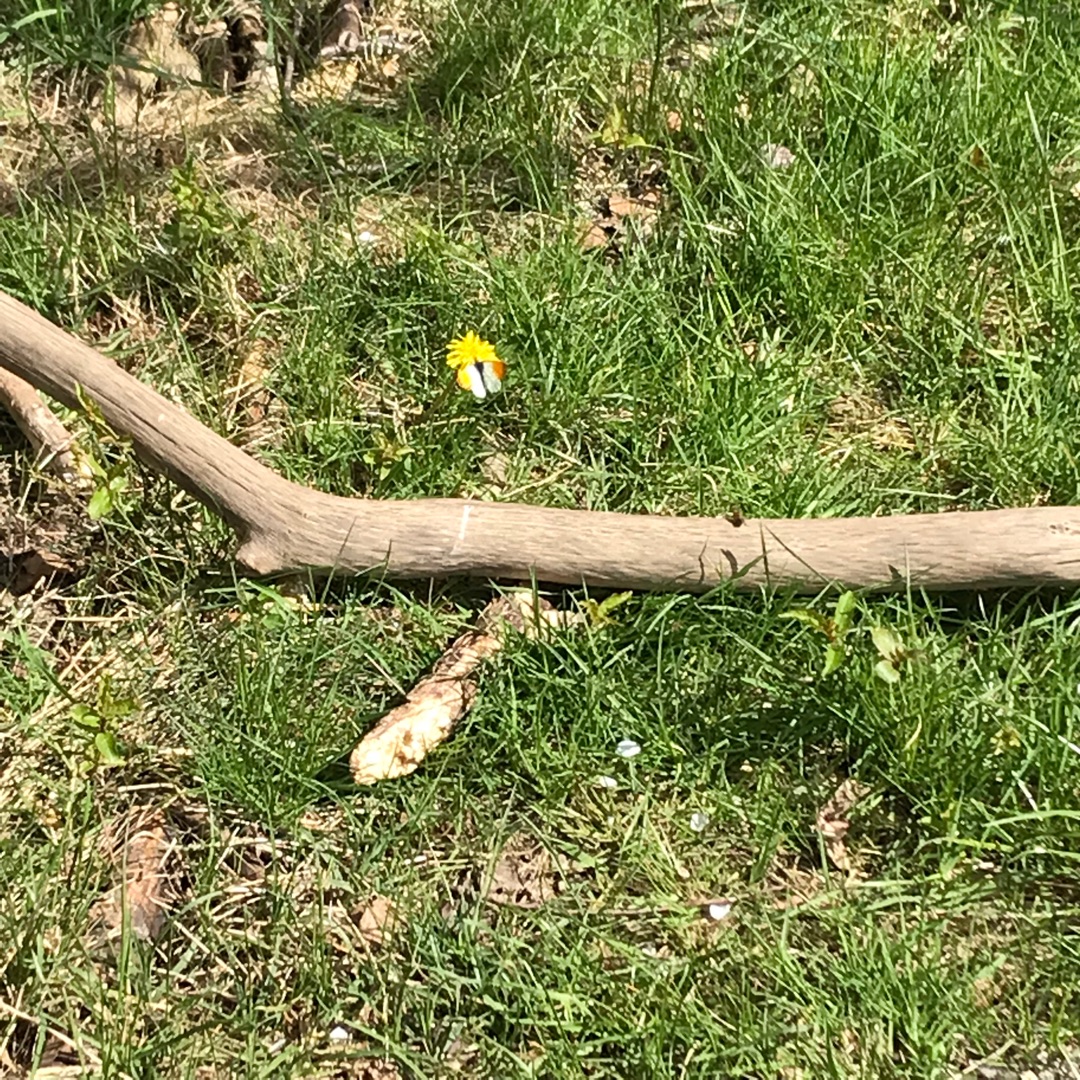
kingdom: Animalia
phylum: Arthropoda
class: Insecta
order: Lepidoptera
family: Pieridae
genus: Anthocharis
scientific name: Anthocharis cardamines
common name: Aurora
